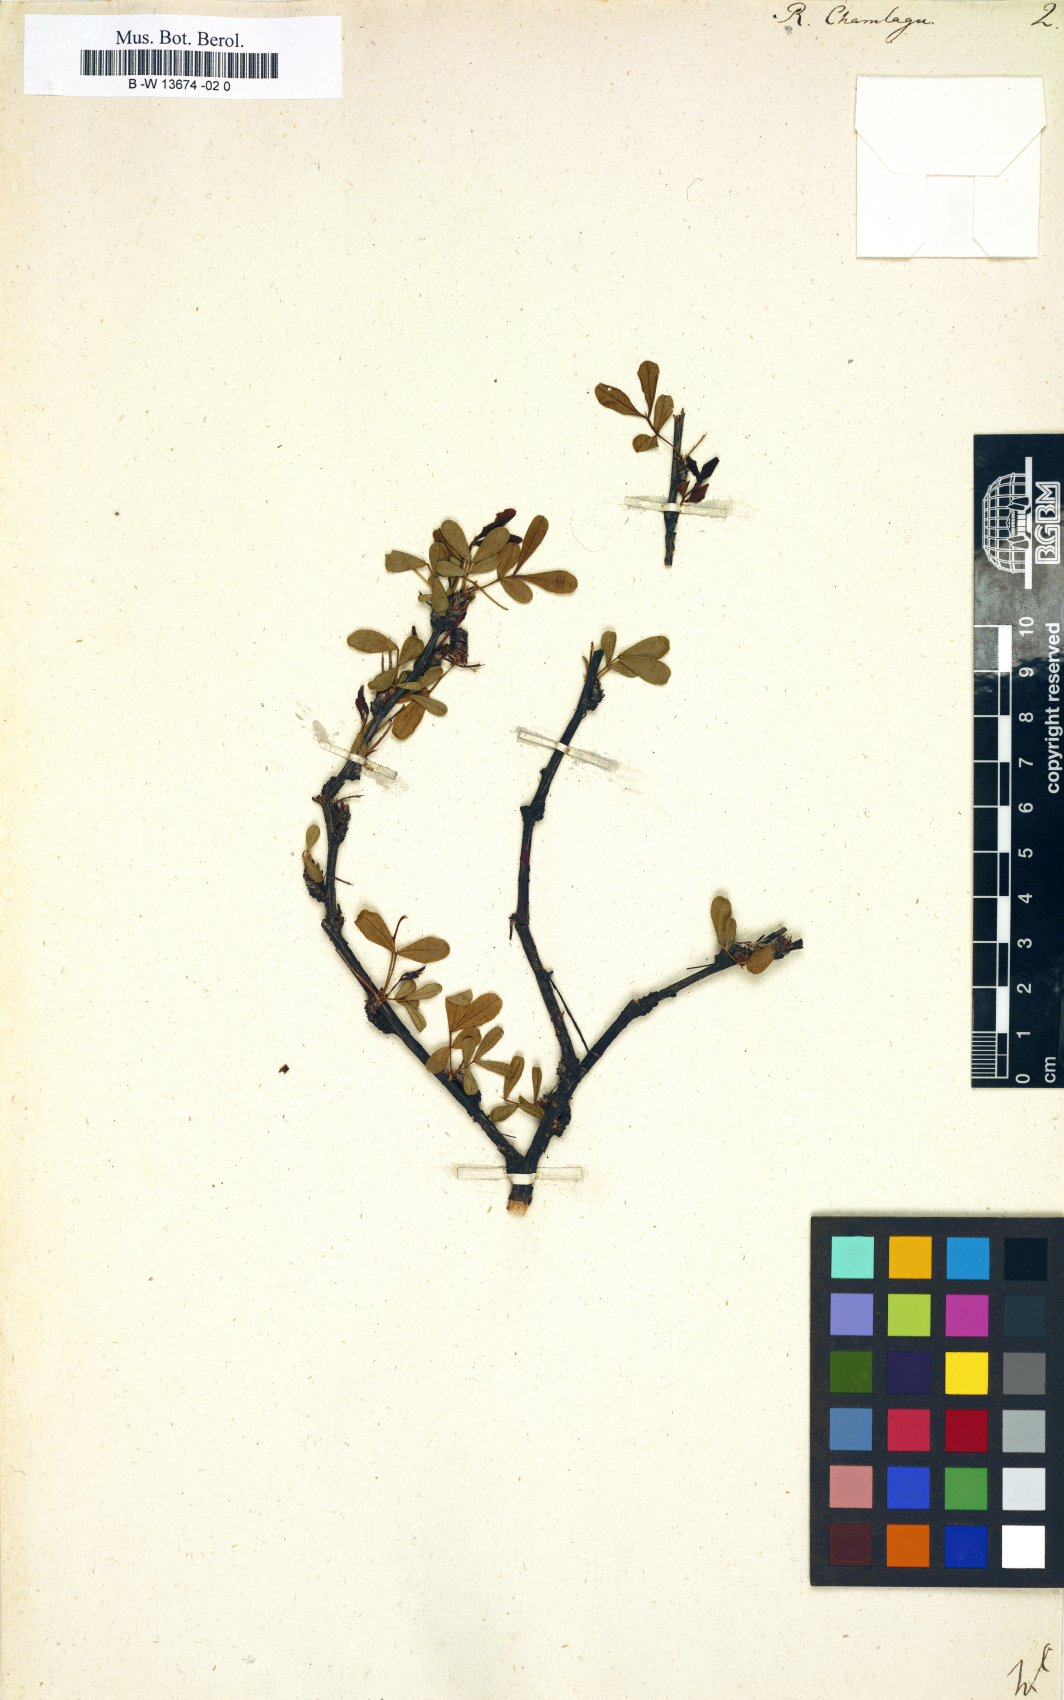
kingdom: Plantae
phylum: Tracheophyta
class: Magnoliopsida
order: Fabales
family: Fabaceae
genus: Caragana
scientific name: Caragana sinica
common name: Chinese peatree
